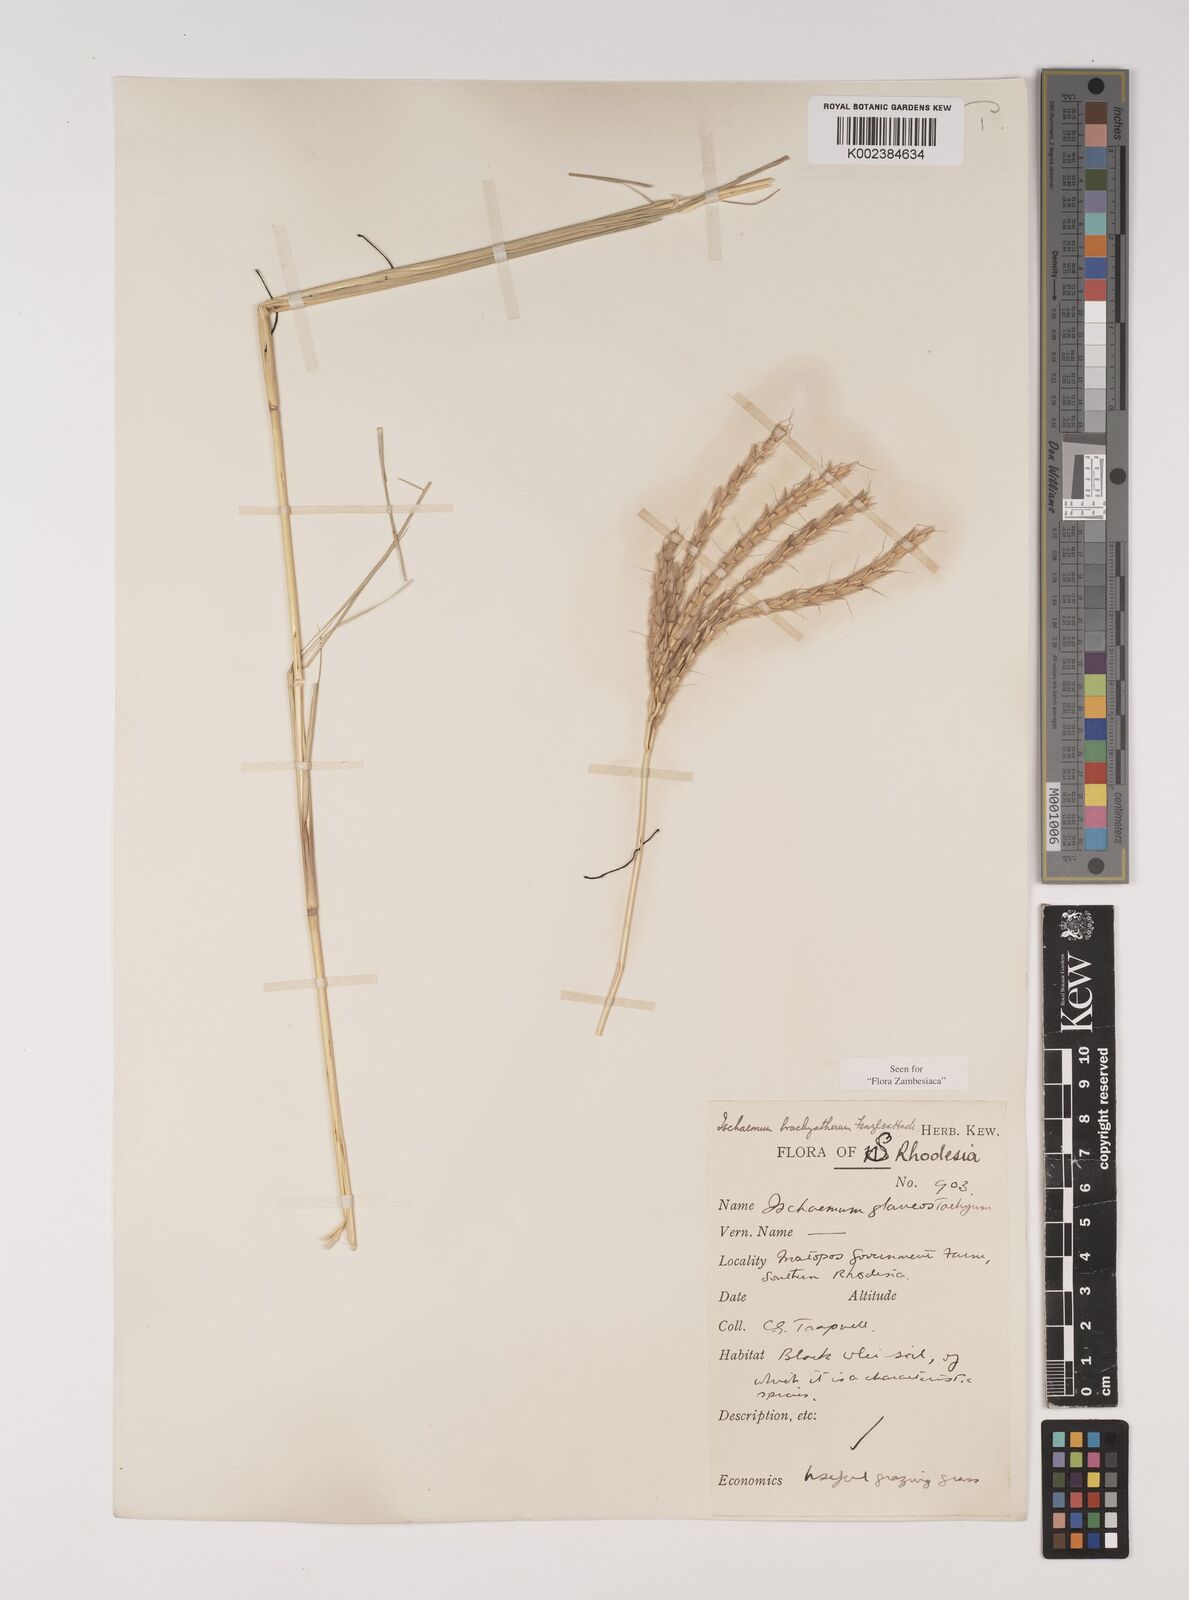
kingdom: Plantae
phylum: Tracheophyta
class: Liliopsida
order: Poales
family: Poaceae
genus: Ischaemum
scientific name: Ischaemum afrum
